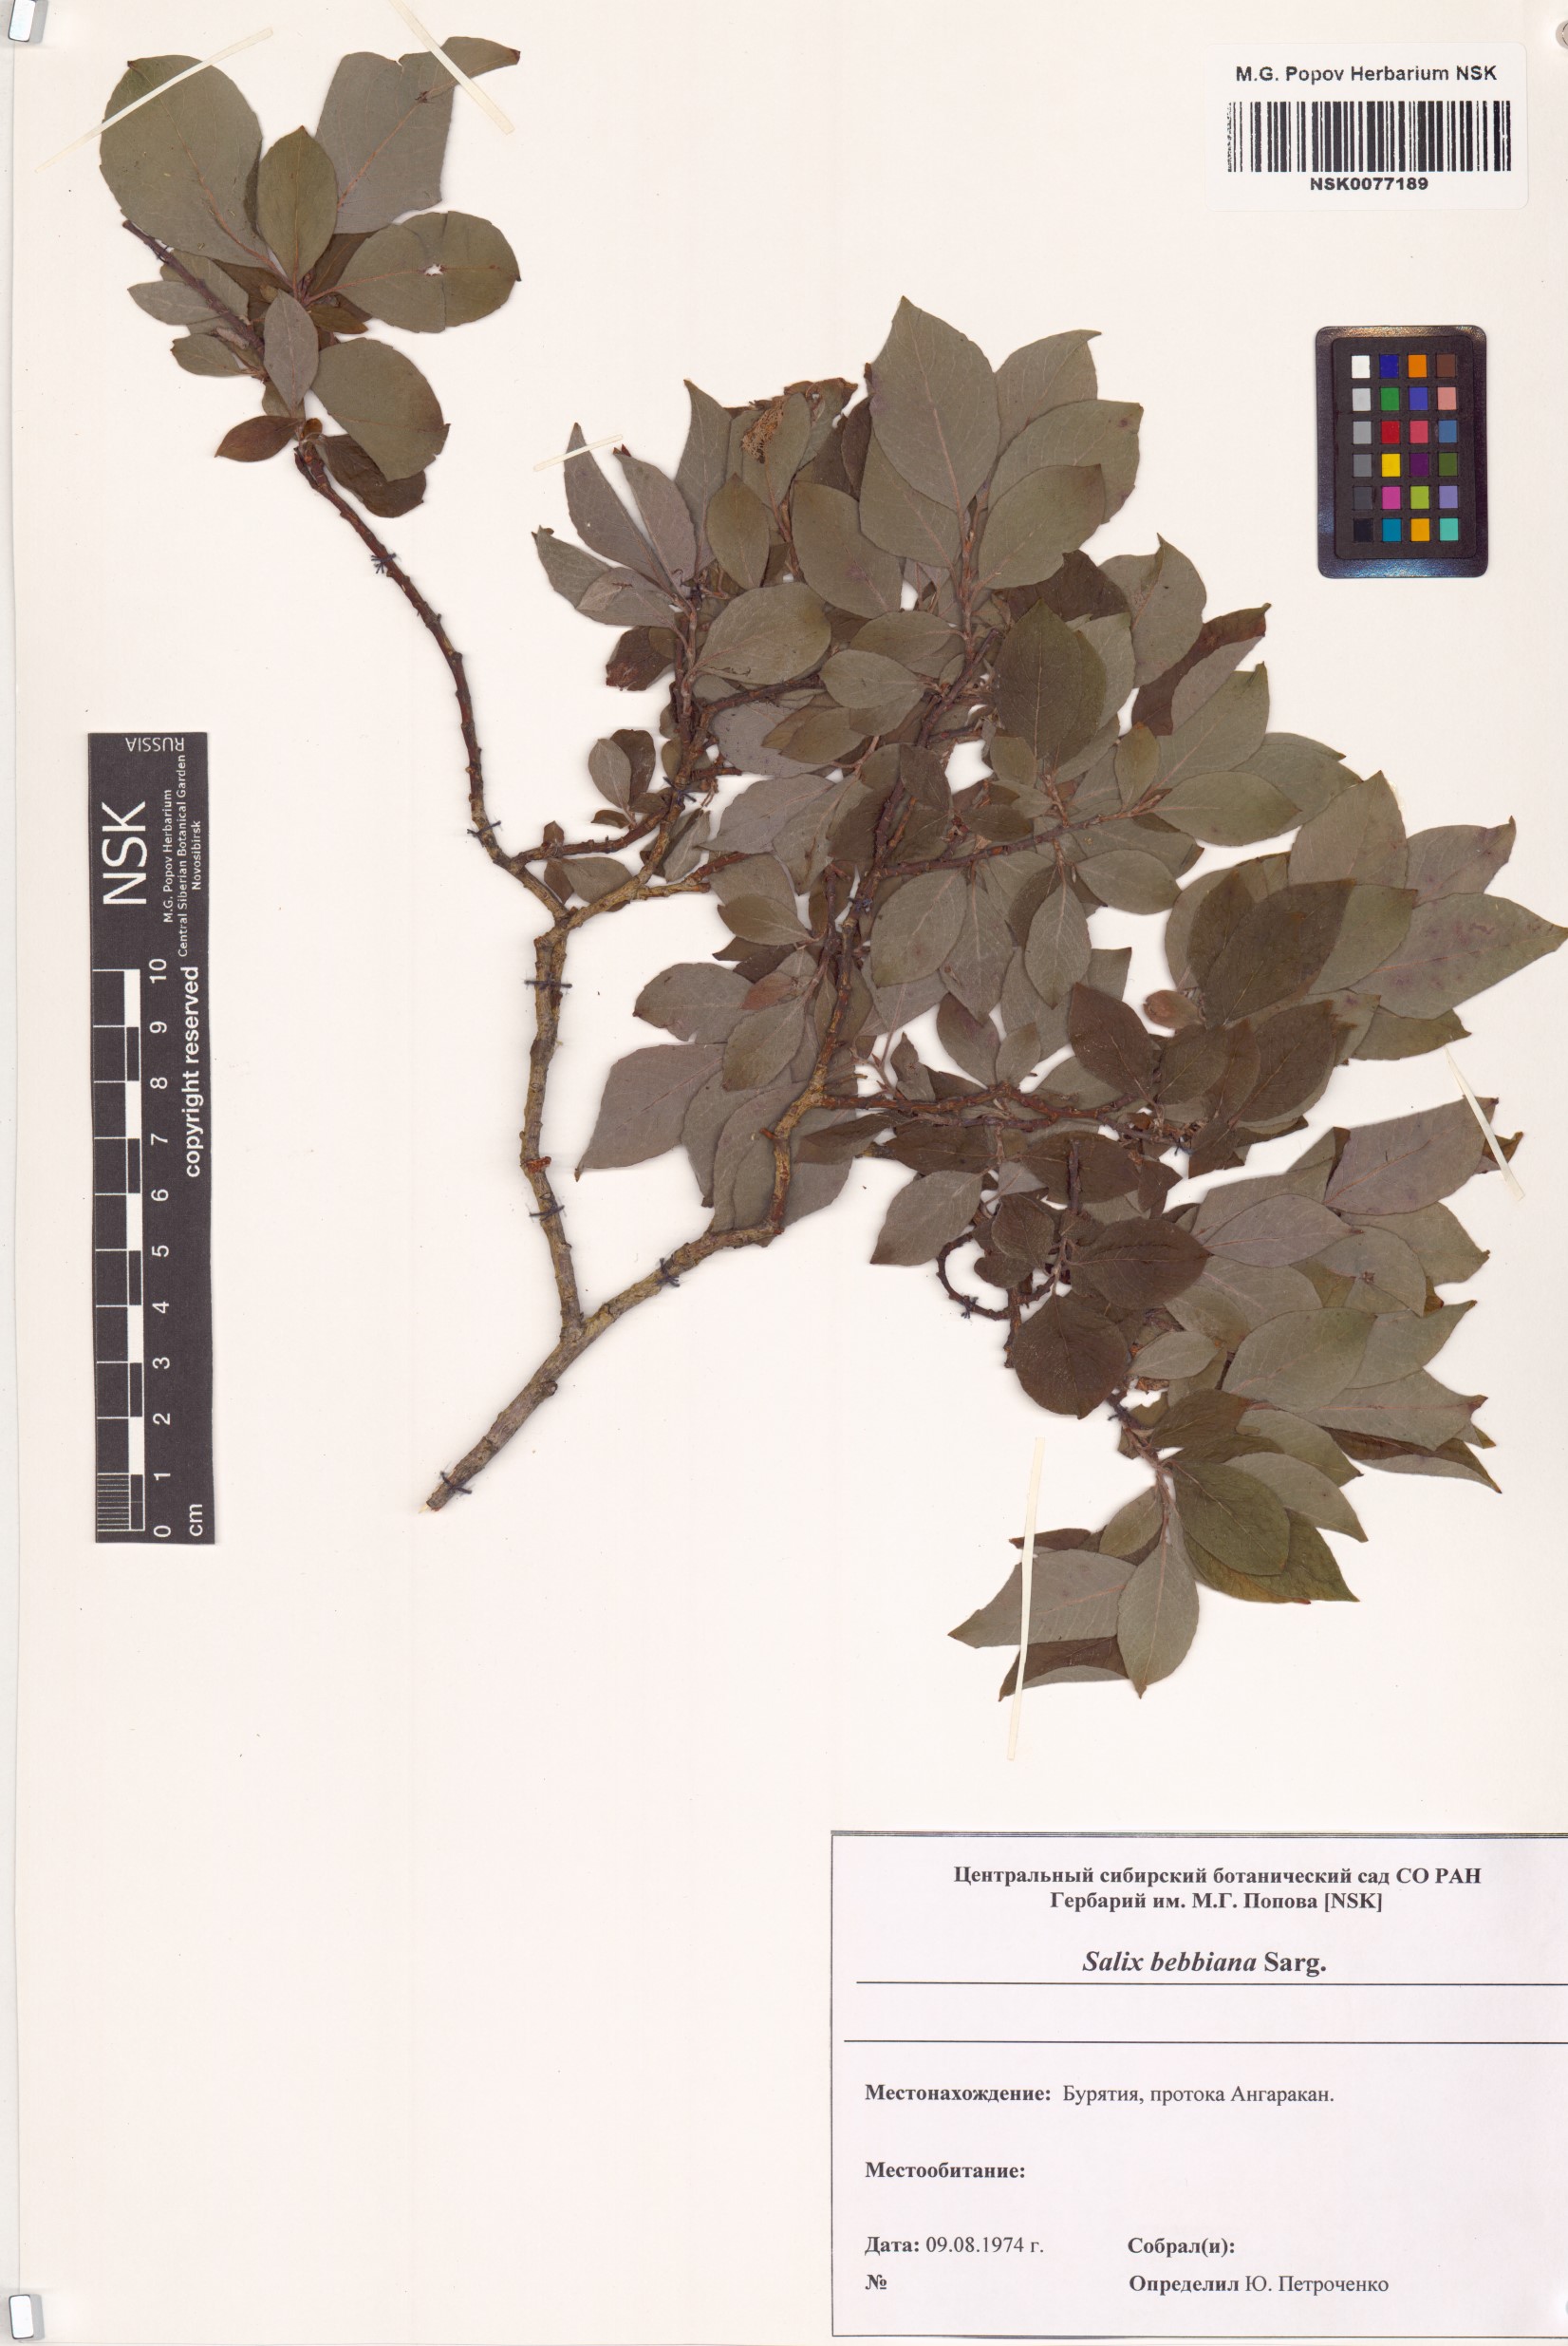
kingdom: Plantae
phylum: Tracheophyta
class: Magnoliopsida
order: Malpighiales
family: Salicaceae
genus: Salix
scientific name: Salix bebbiana
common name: Bebb's willow
